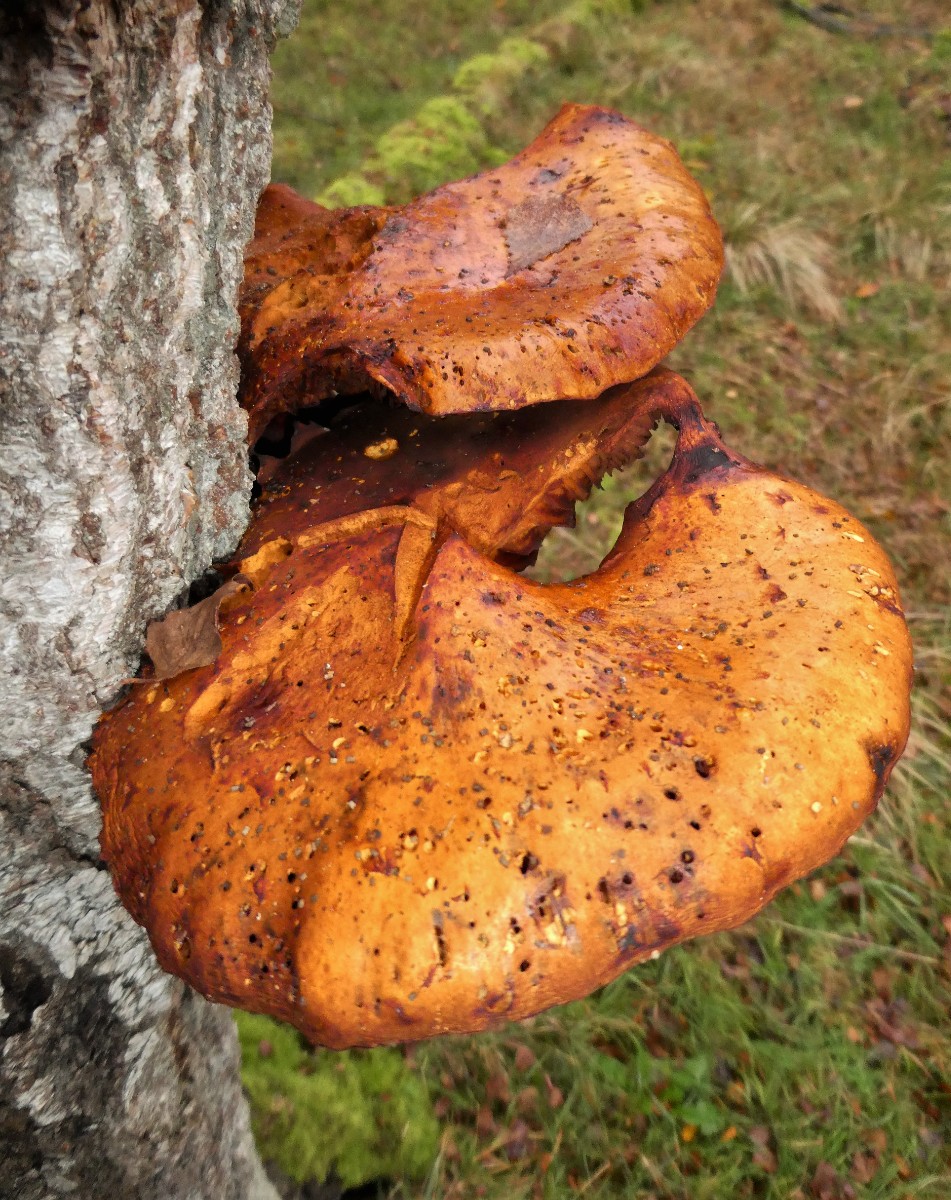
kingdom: Fungi
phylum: Basidiomycota
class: Agaricomycetes
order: Agaricales
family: Strophariaceae
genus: Pholiota
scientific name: Pholiota limonella
